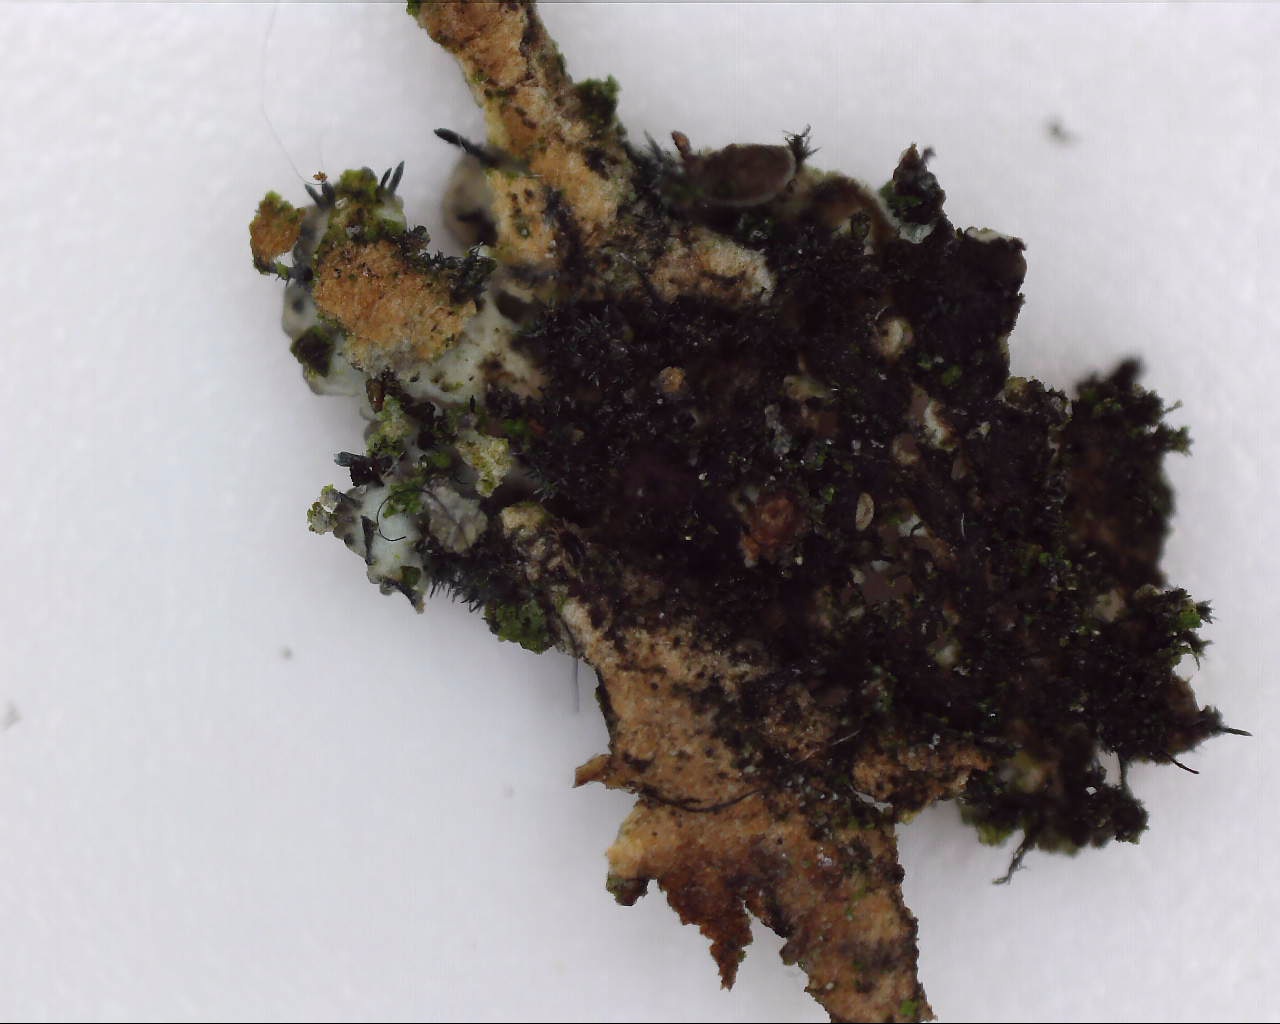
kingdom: Fungi
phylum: Ascomycota
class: Lecanoromycetes
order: Caliciales
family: Physciaceae
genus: Physconia
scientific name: Physconia perisidiosa
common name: liden dugrosetlav
